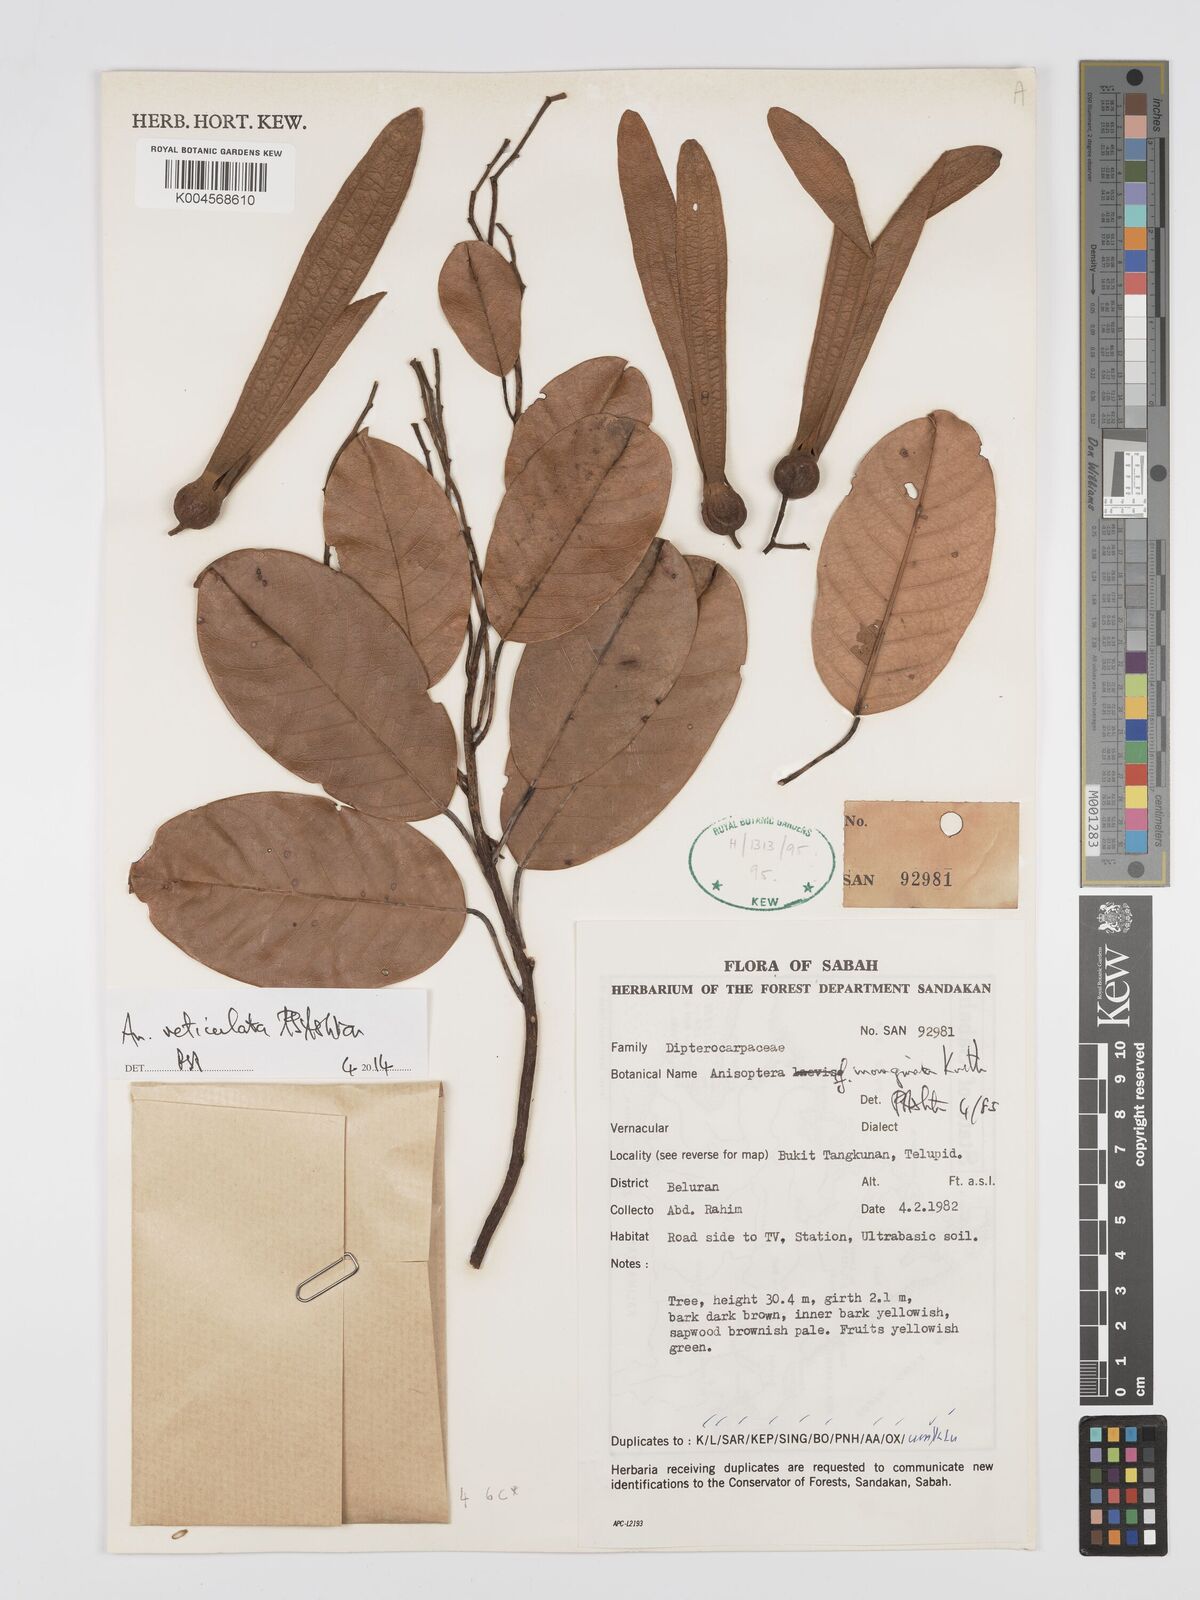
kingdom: Plantae
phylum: Tracheophyta
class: Magnoliopsida
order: Malvales
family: Dipterocarpaceae
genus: Anisoptera
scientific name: Anisoptera marginata
